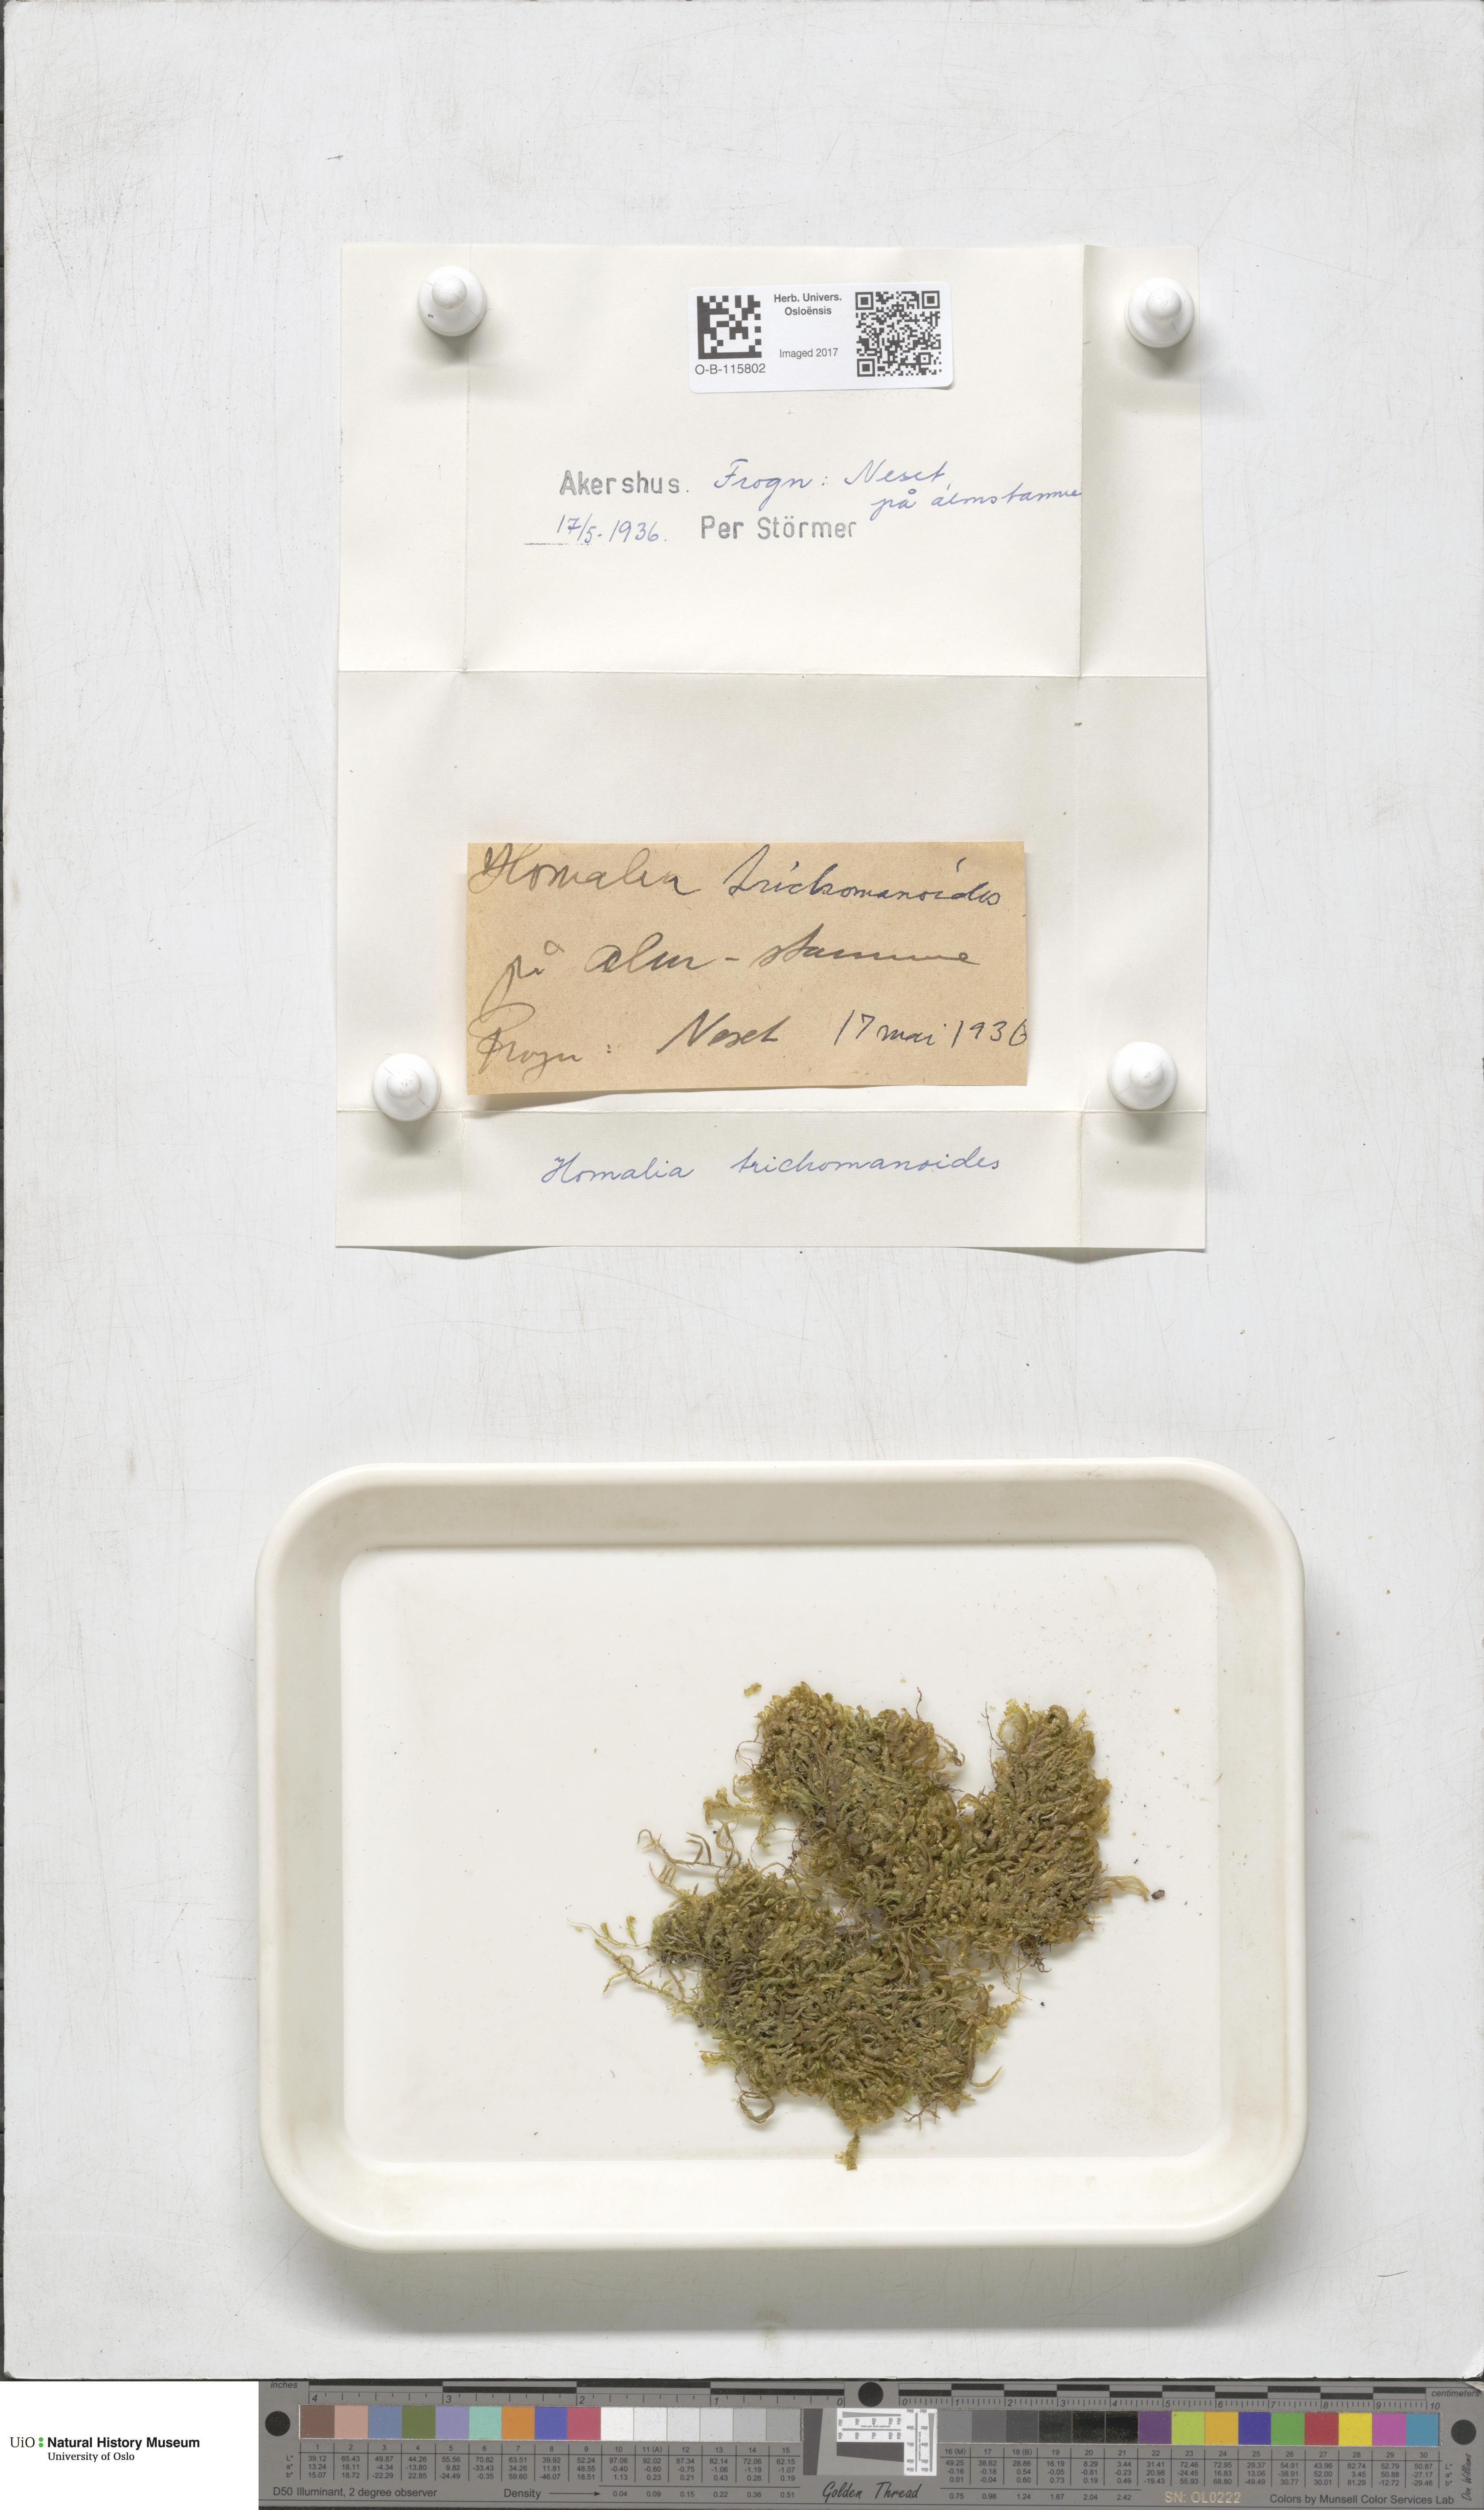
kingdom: Plantae
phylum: Bryophyta
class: Bryopsida
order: Hypnales
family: Neckeraceae
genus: Homalia
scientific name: Homalia trichomanoides
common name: Lime homalia moss
